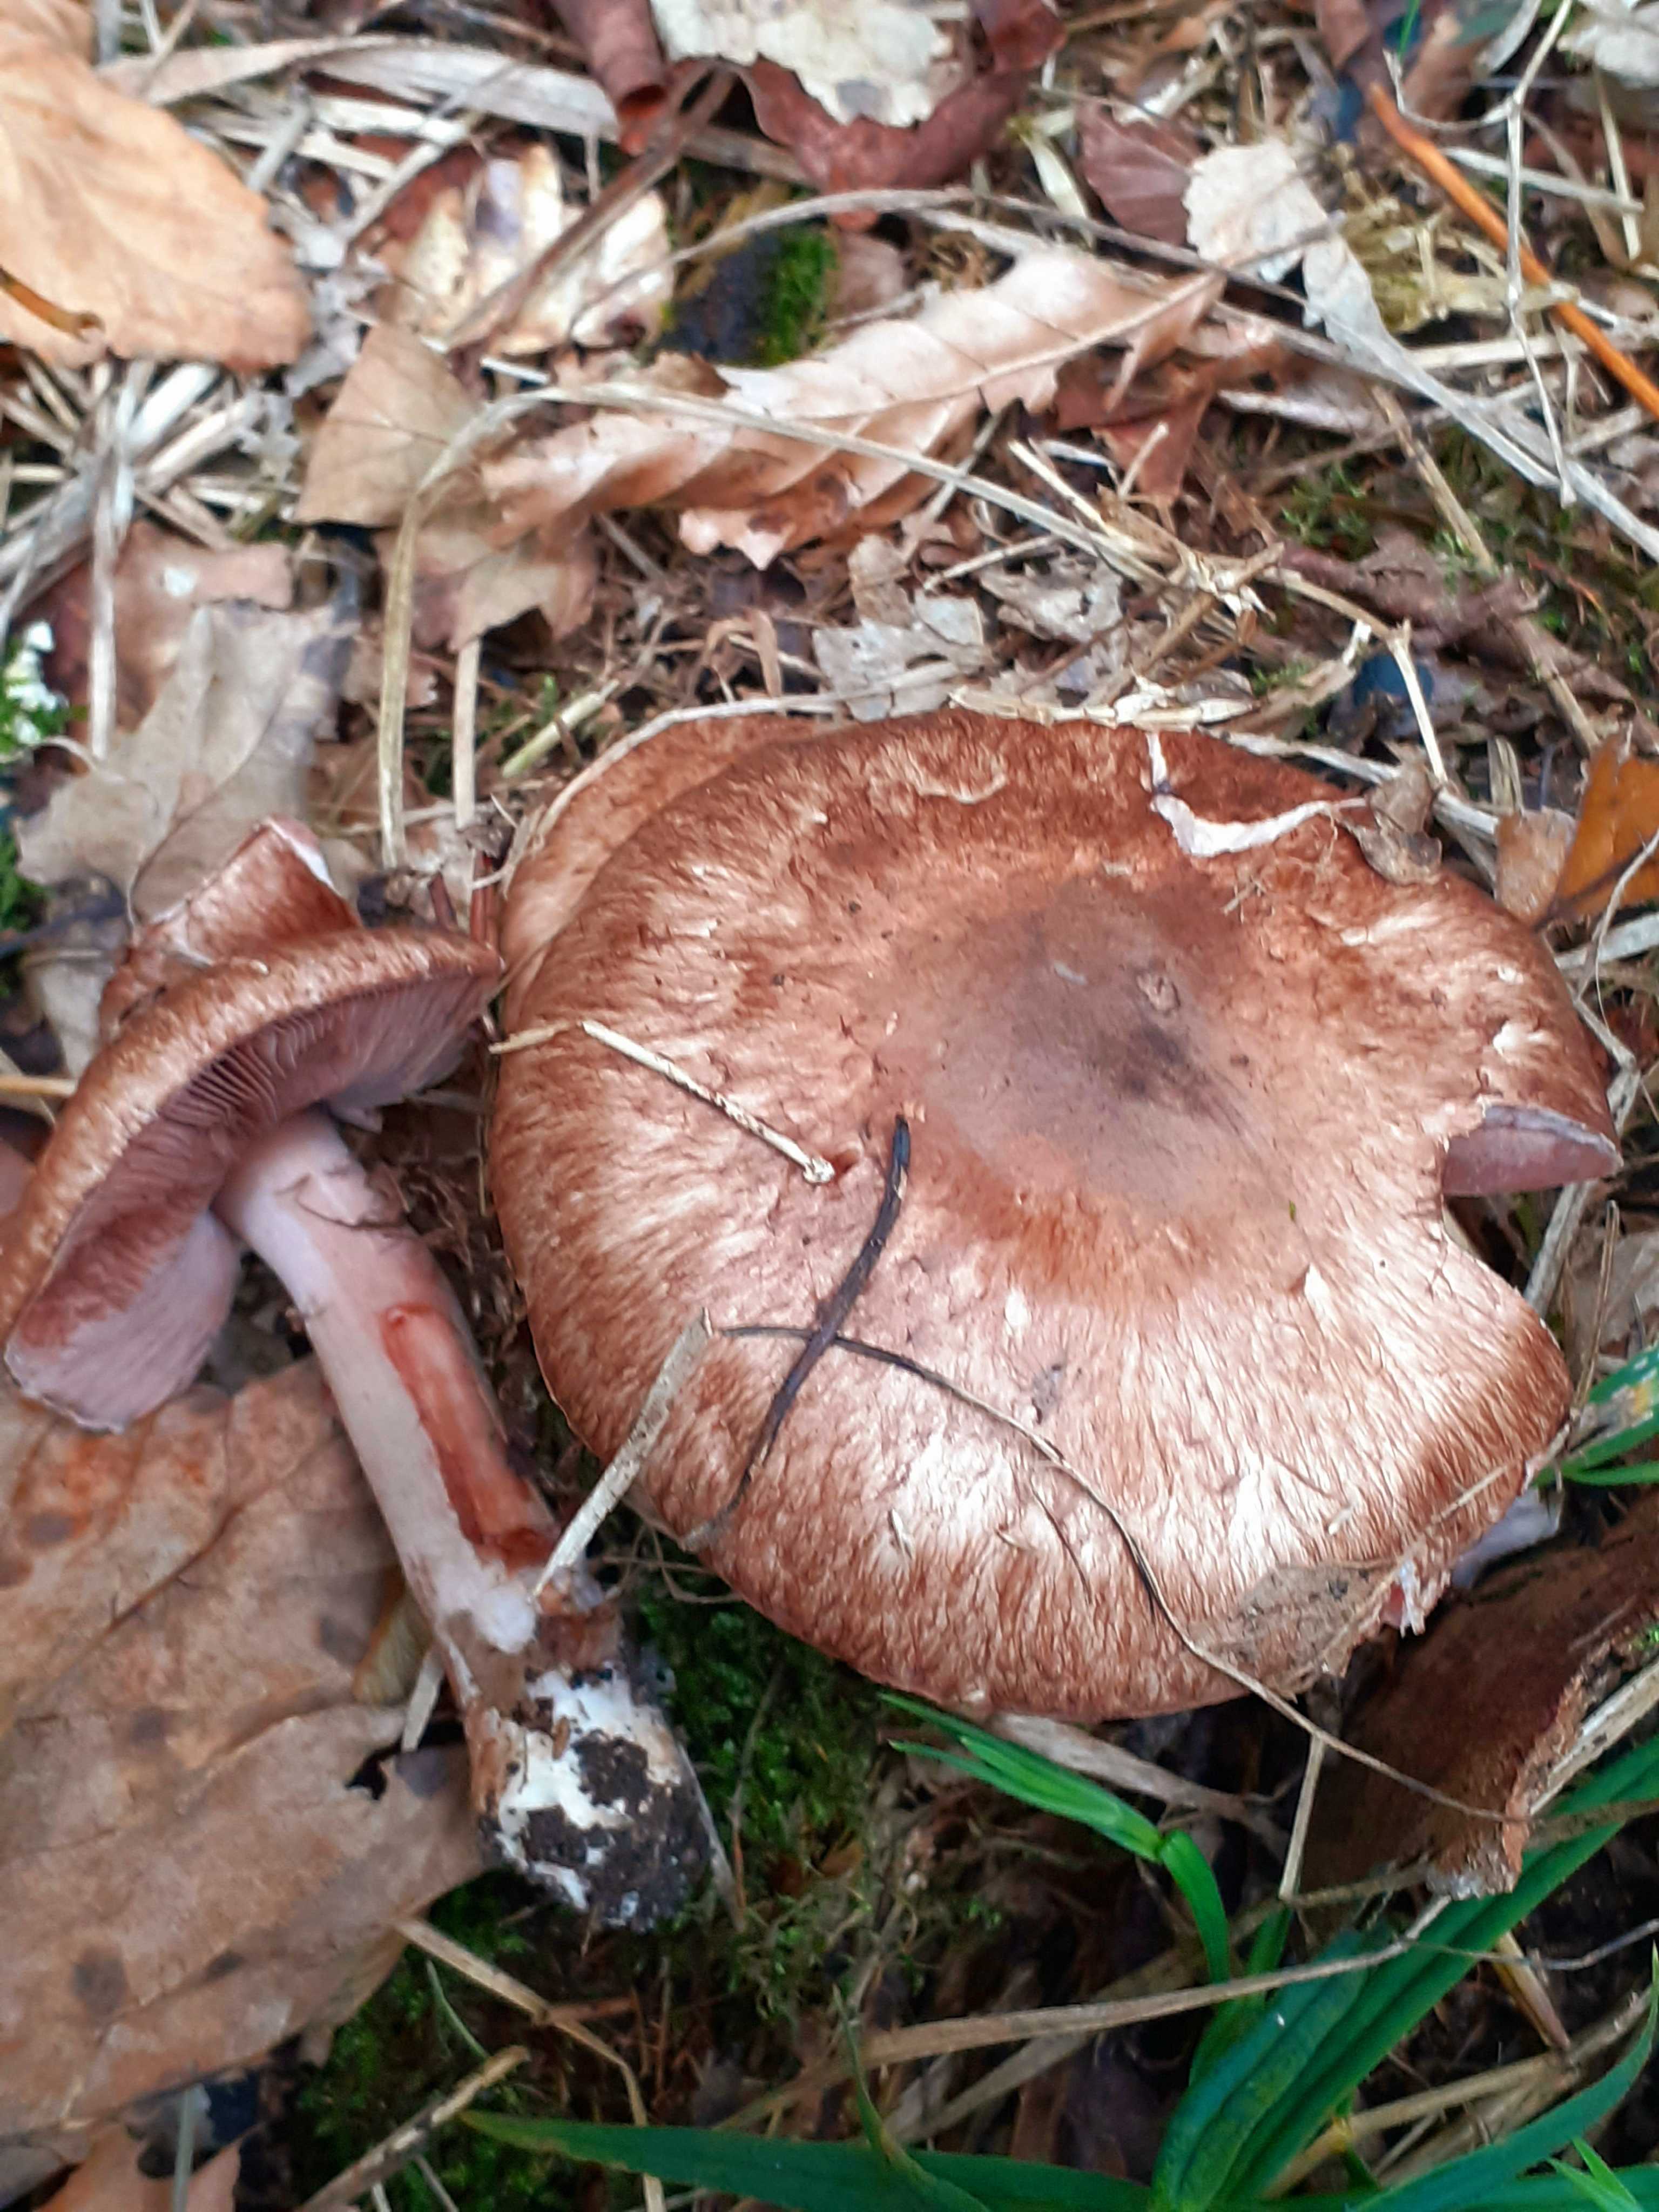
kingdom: Fungi
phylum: Basidiomycota
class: Agaricomycetes
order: Agaricales
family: Agaricaceae
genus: Agaricus
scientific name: Agaricus
